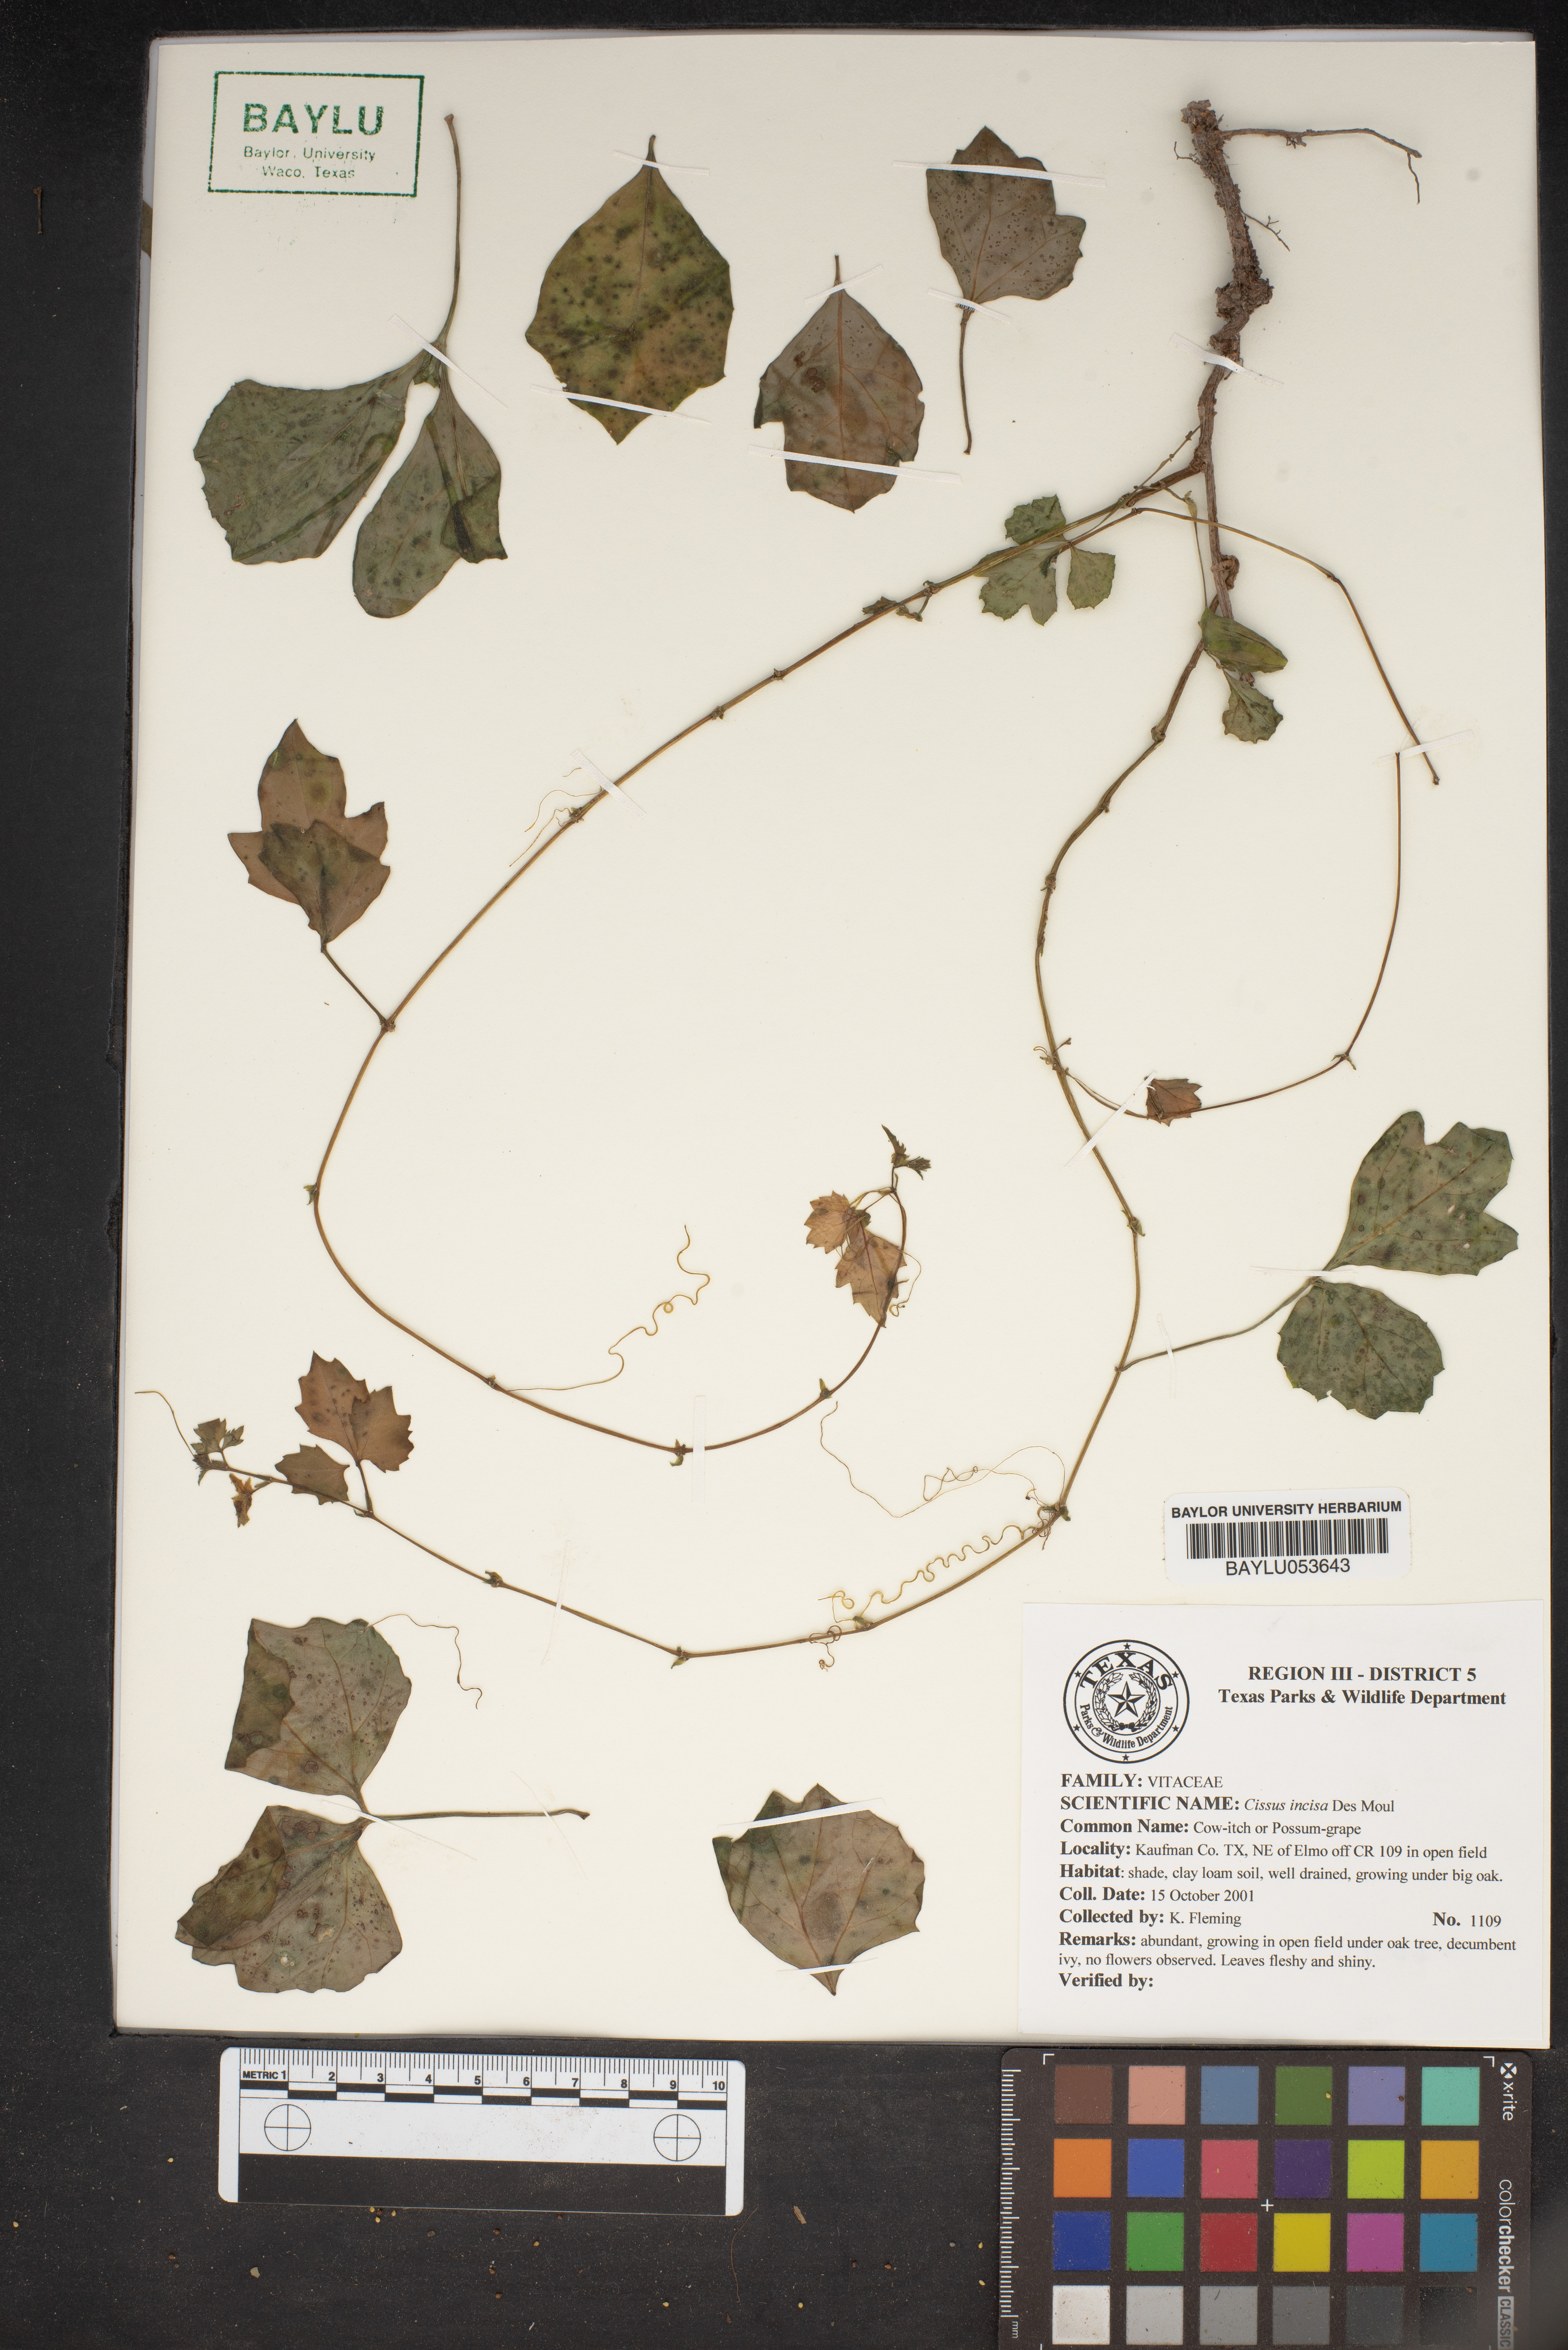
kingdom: Plantae
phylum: Tracheophyta
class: Magnoliopsida
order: Vitales
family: Vitaceae
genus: Cissus
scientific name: Cissus trifoliata
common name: Vine-sorrel
